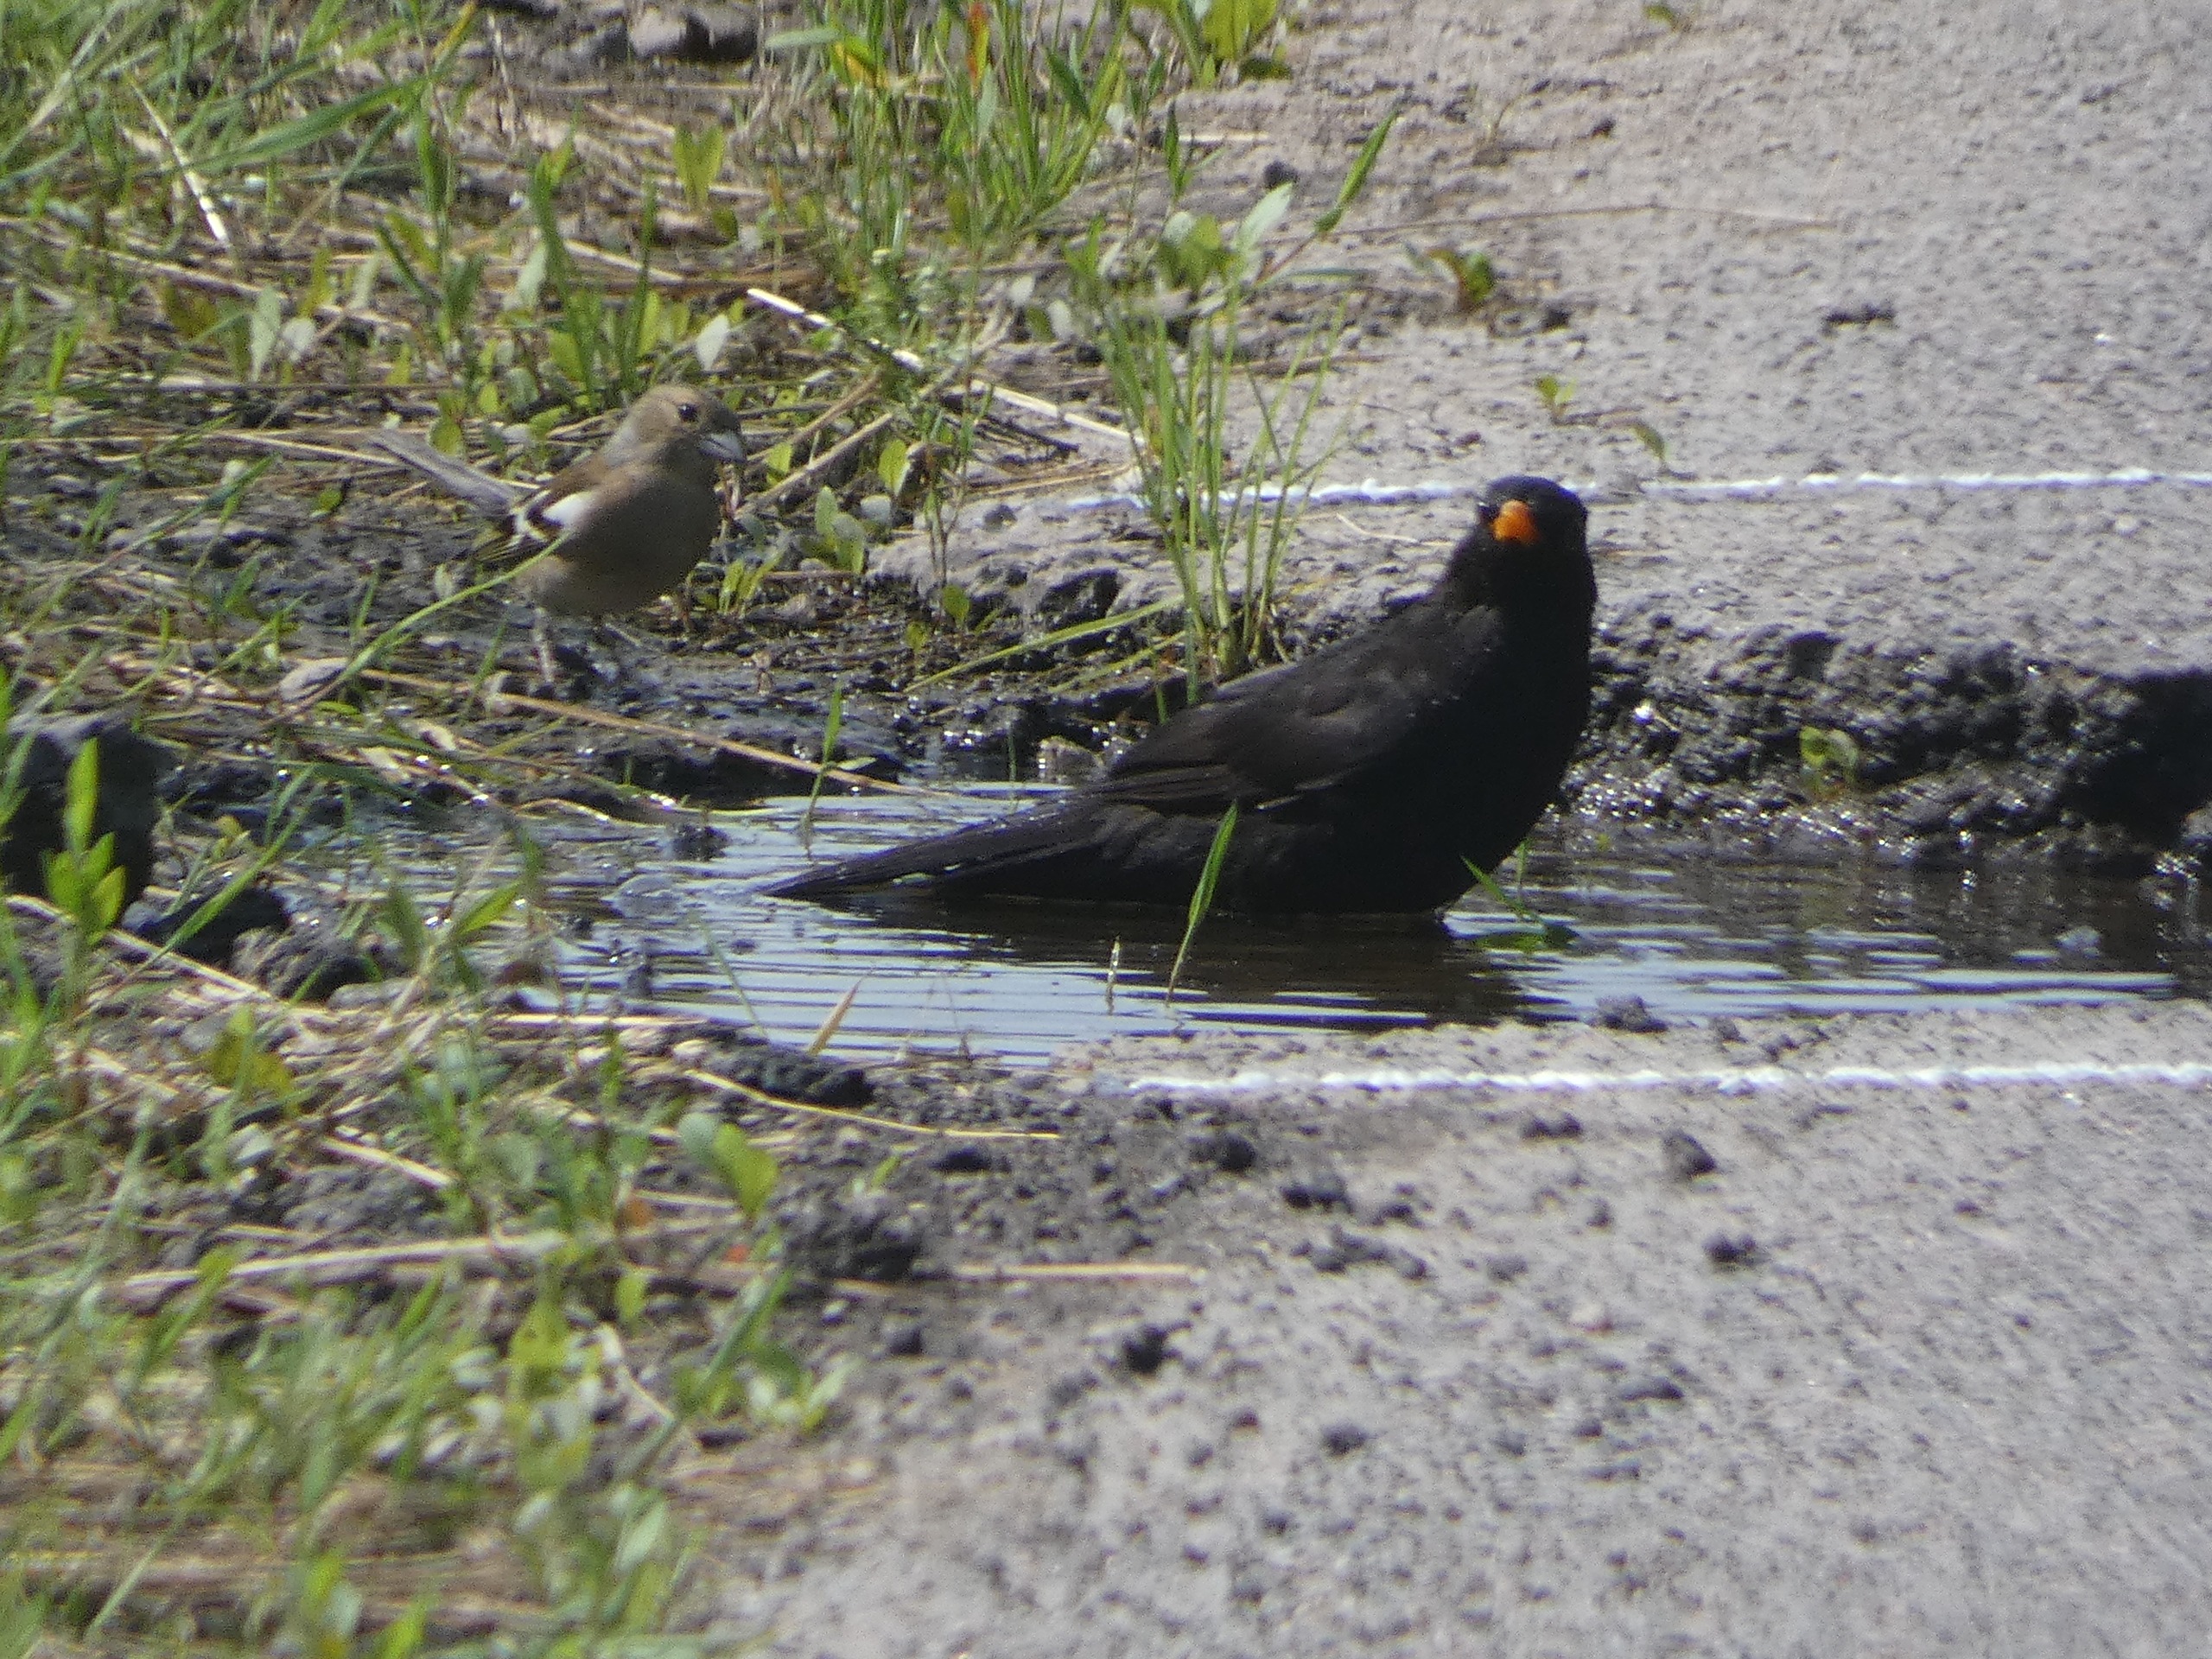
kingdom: Animalia
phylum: Chordata
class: Aves
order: Passeriformes
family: Turdidae
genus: Turdus
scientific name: Turdus merula
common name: Solsort
